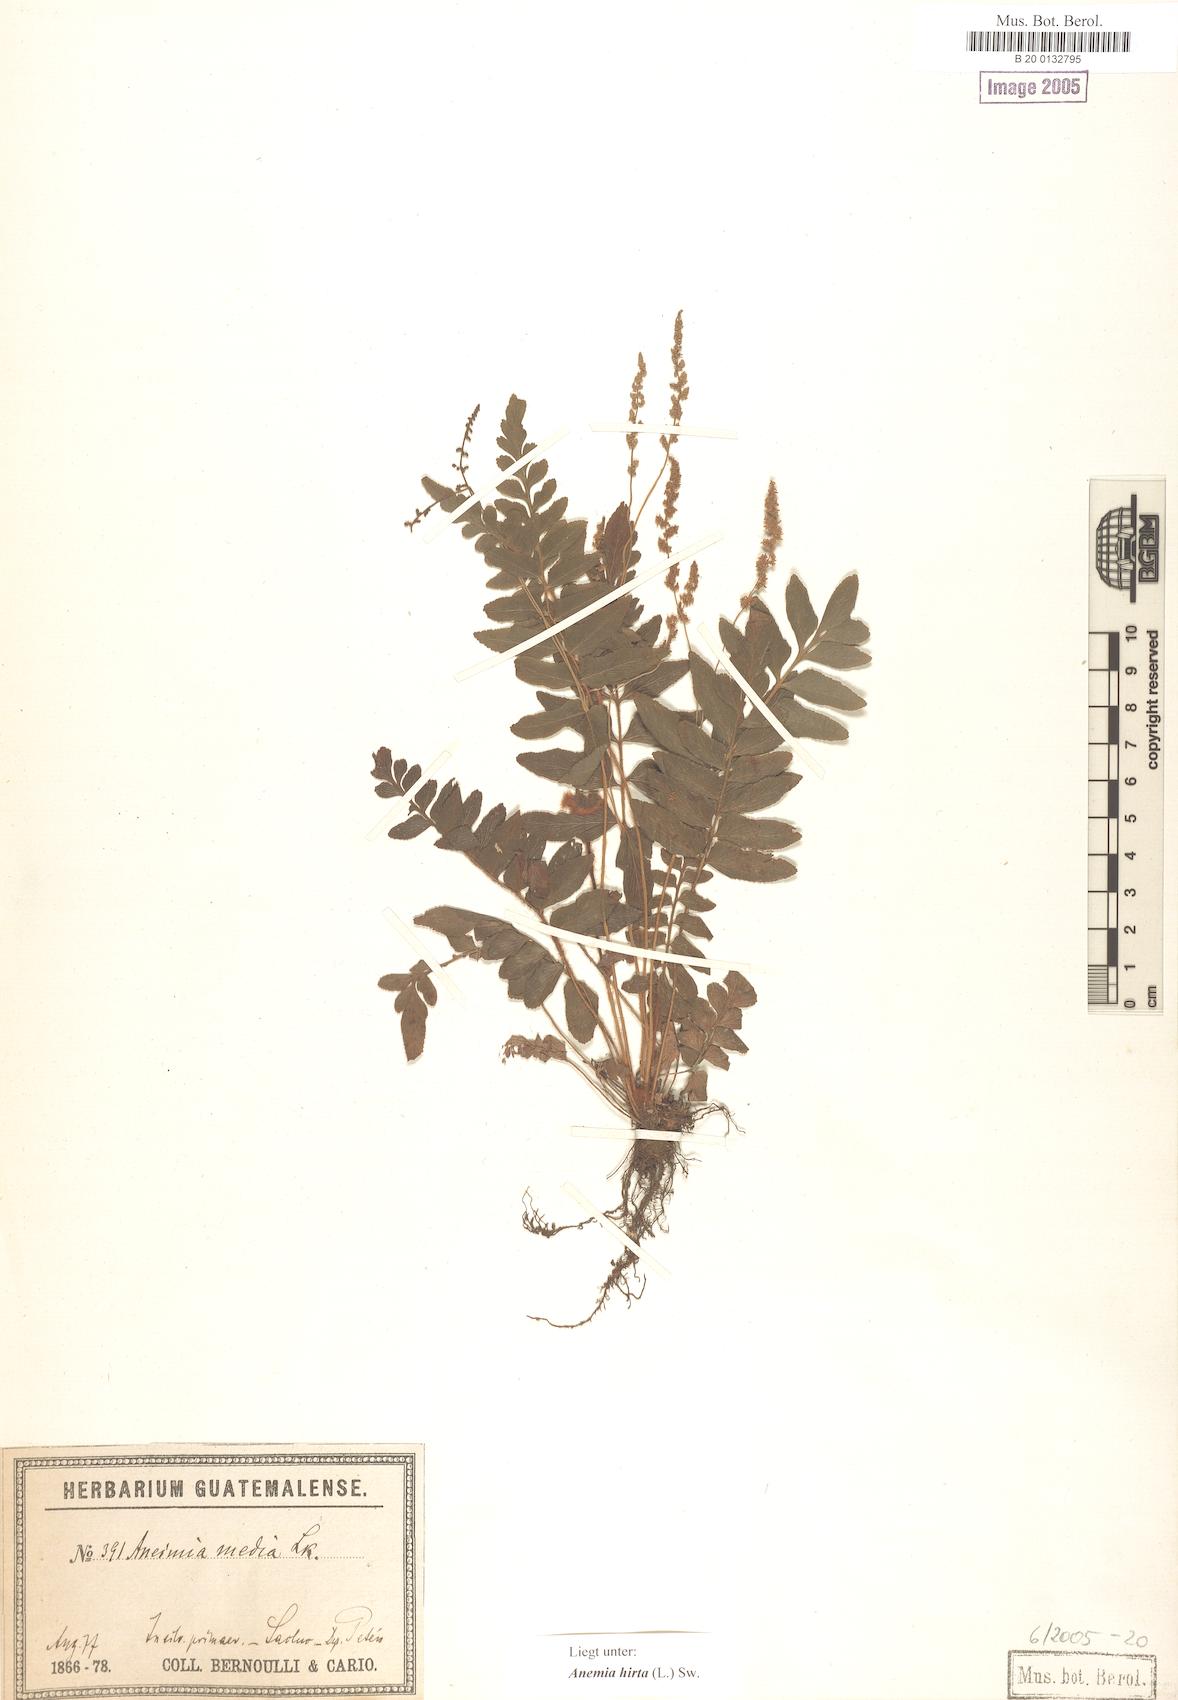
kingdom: Plantae
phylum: Tracheophyta
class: Polypodiopsida
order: Schizaeales
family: Anemiaceae
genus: Anemia
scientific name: Anemia hirta
